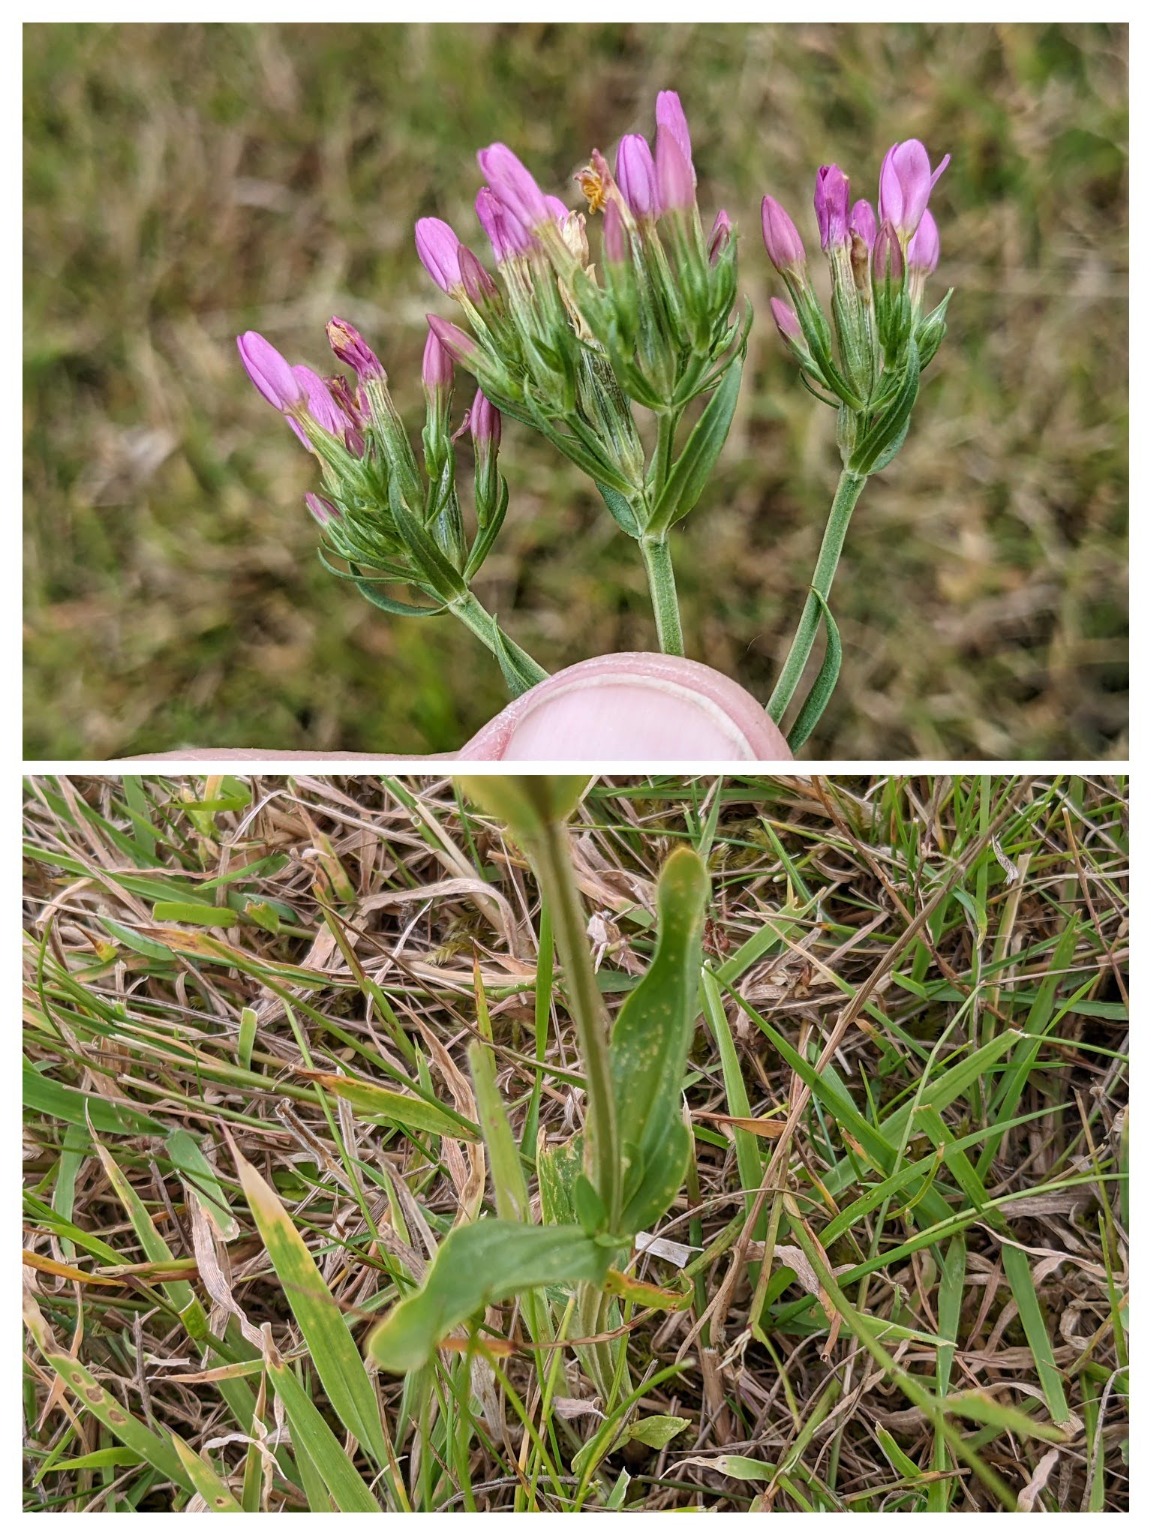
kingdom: Plantae
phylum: Tracheophyta
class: Magnoliopsida
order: Gentianales
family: Gentianaceae
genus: Centaurium
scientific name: Centaurium erythraea
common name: Mark-tusindgylden
